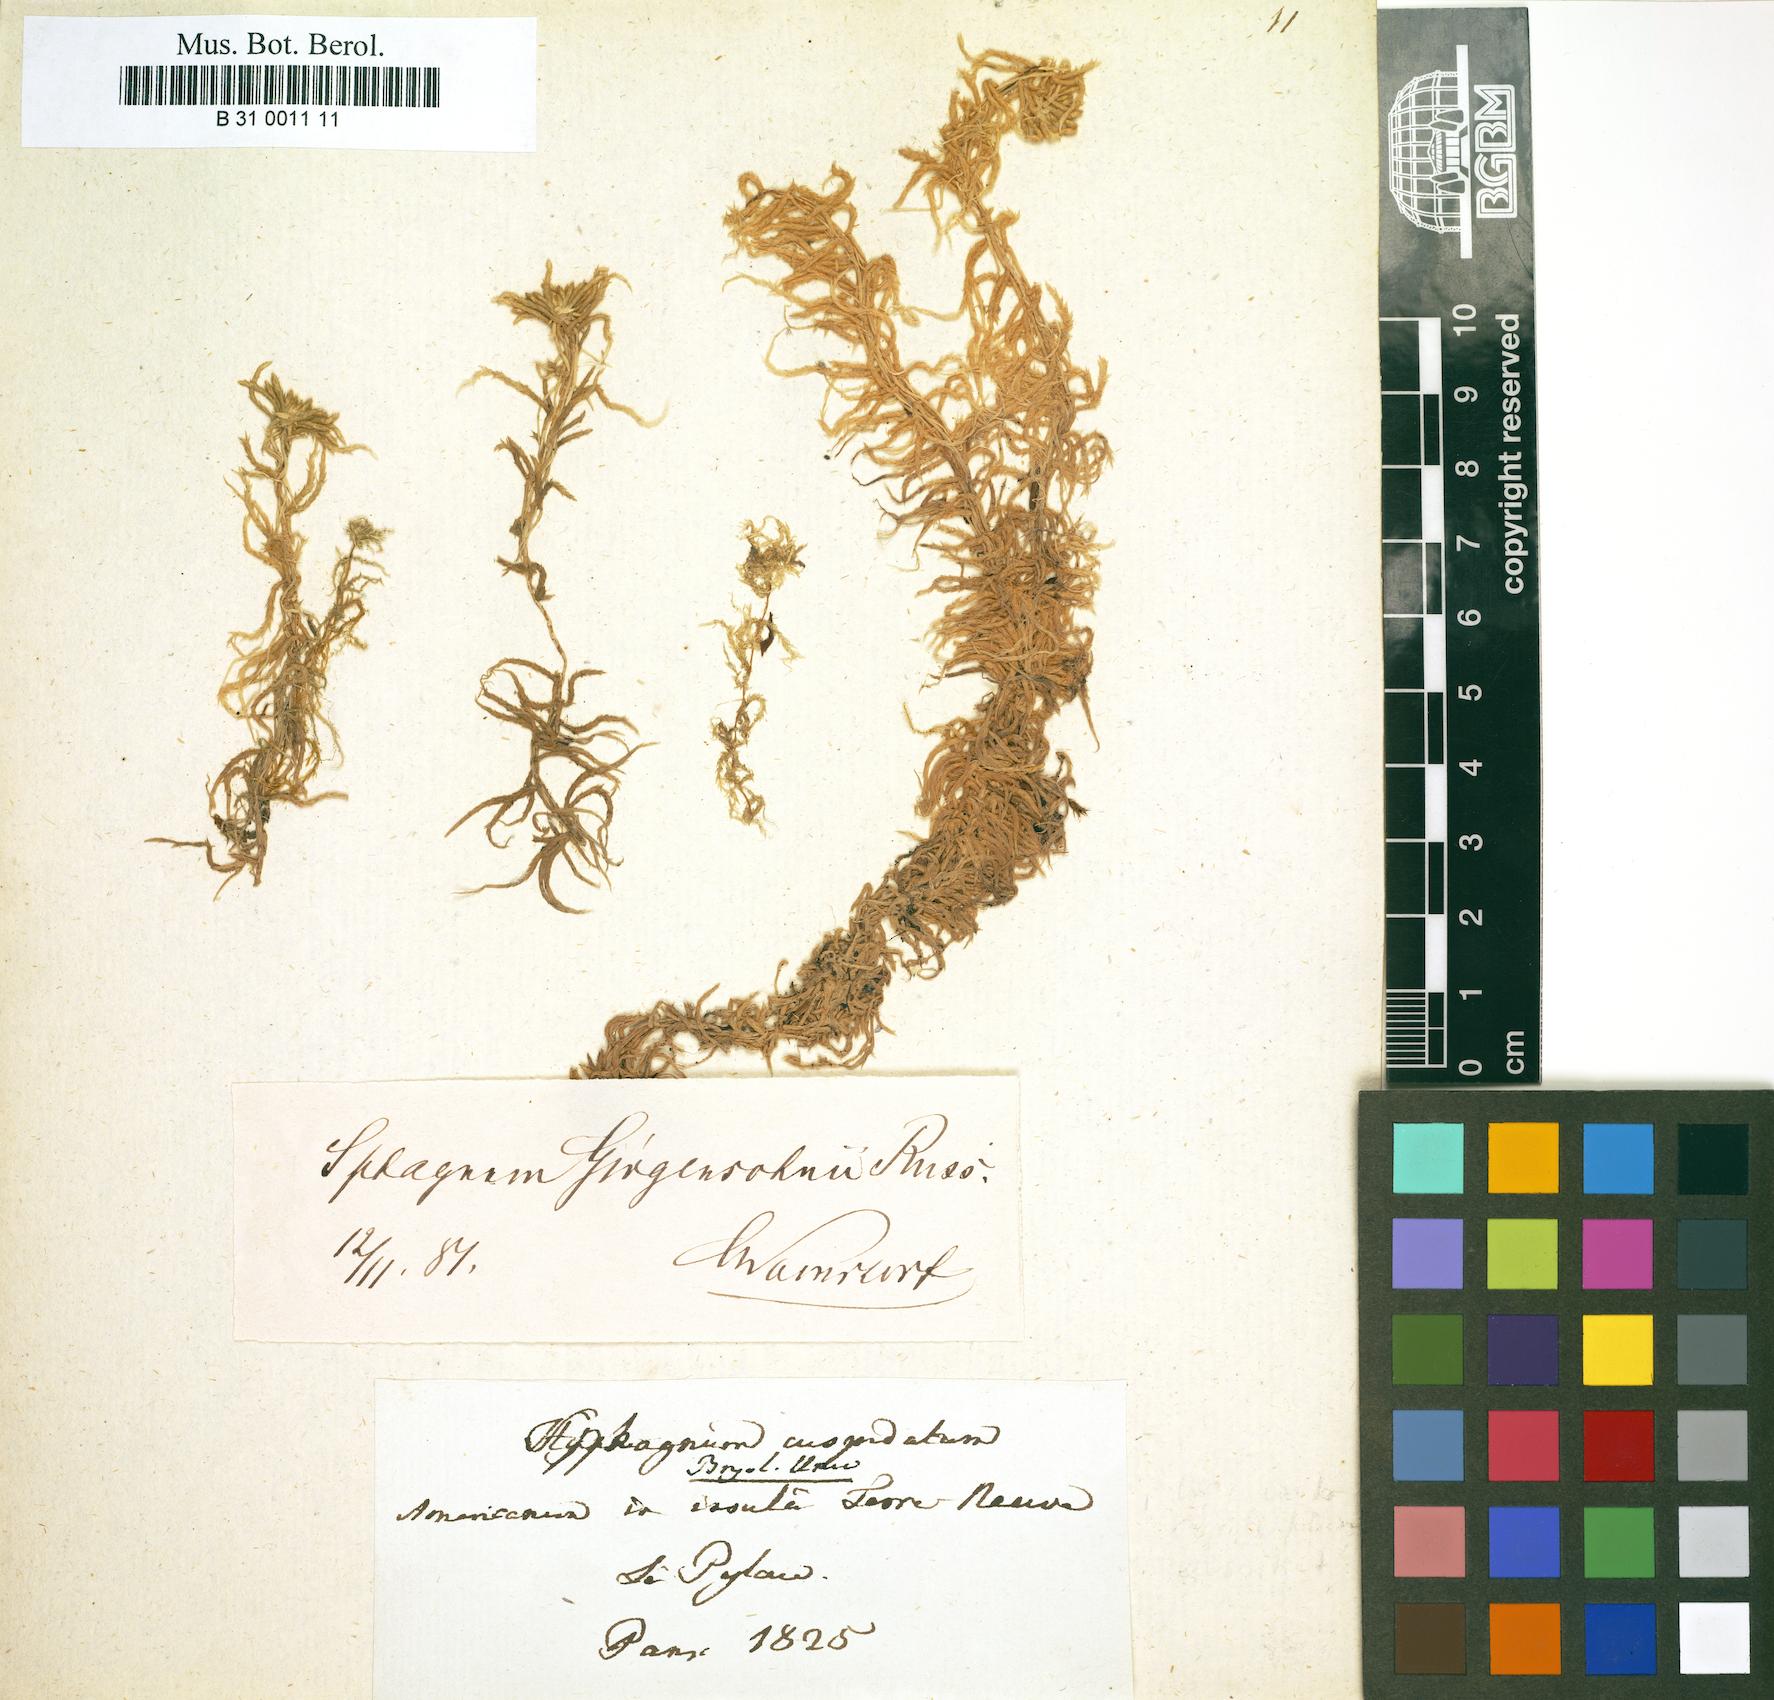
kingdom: Plantae
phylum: Bryophyta
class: Sphagnopsida
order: Sphagnales
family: Sphagnaceae
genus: Sphagnum
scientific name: Sphagnum cuspidatum
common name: Feathery peat moss
